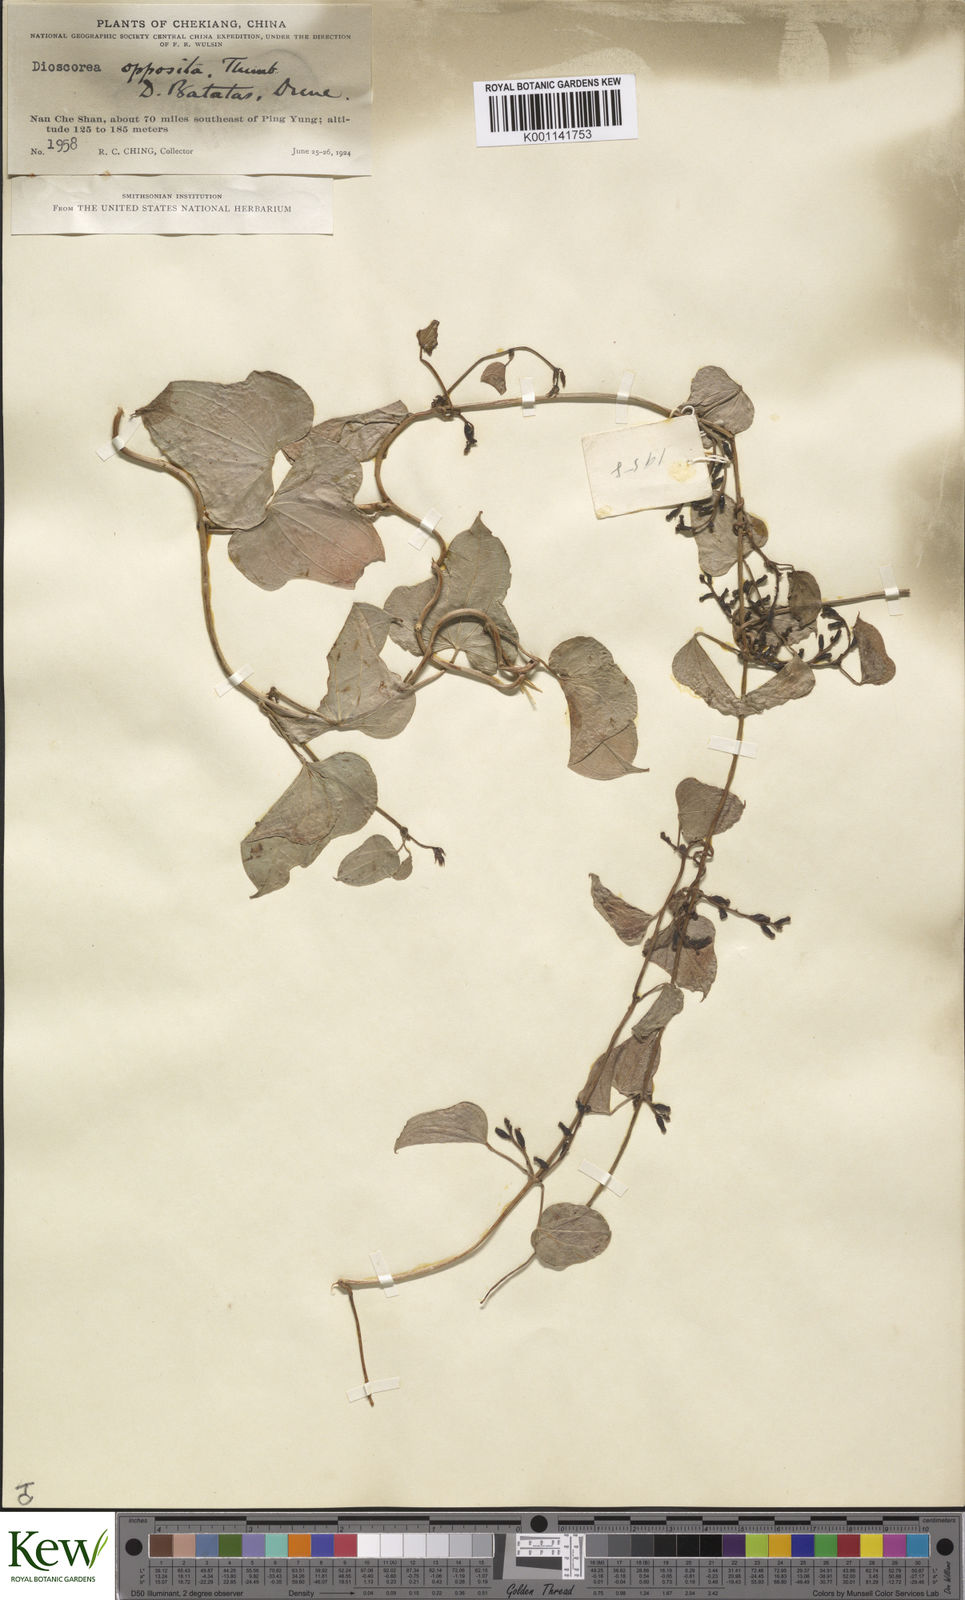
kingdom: Plantae
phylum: Tracheophyta
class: Liliopsida
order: Dioscoreales
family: Dioscoreaceae
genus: Dioscorea
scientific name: Dioscorea oppositifolia
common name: Chinese yam
